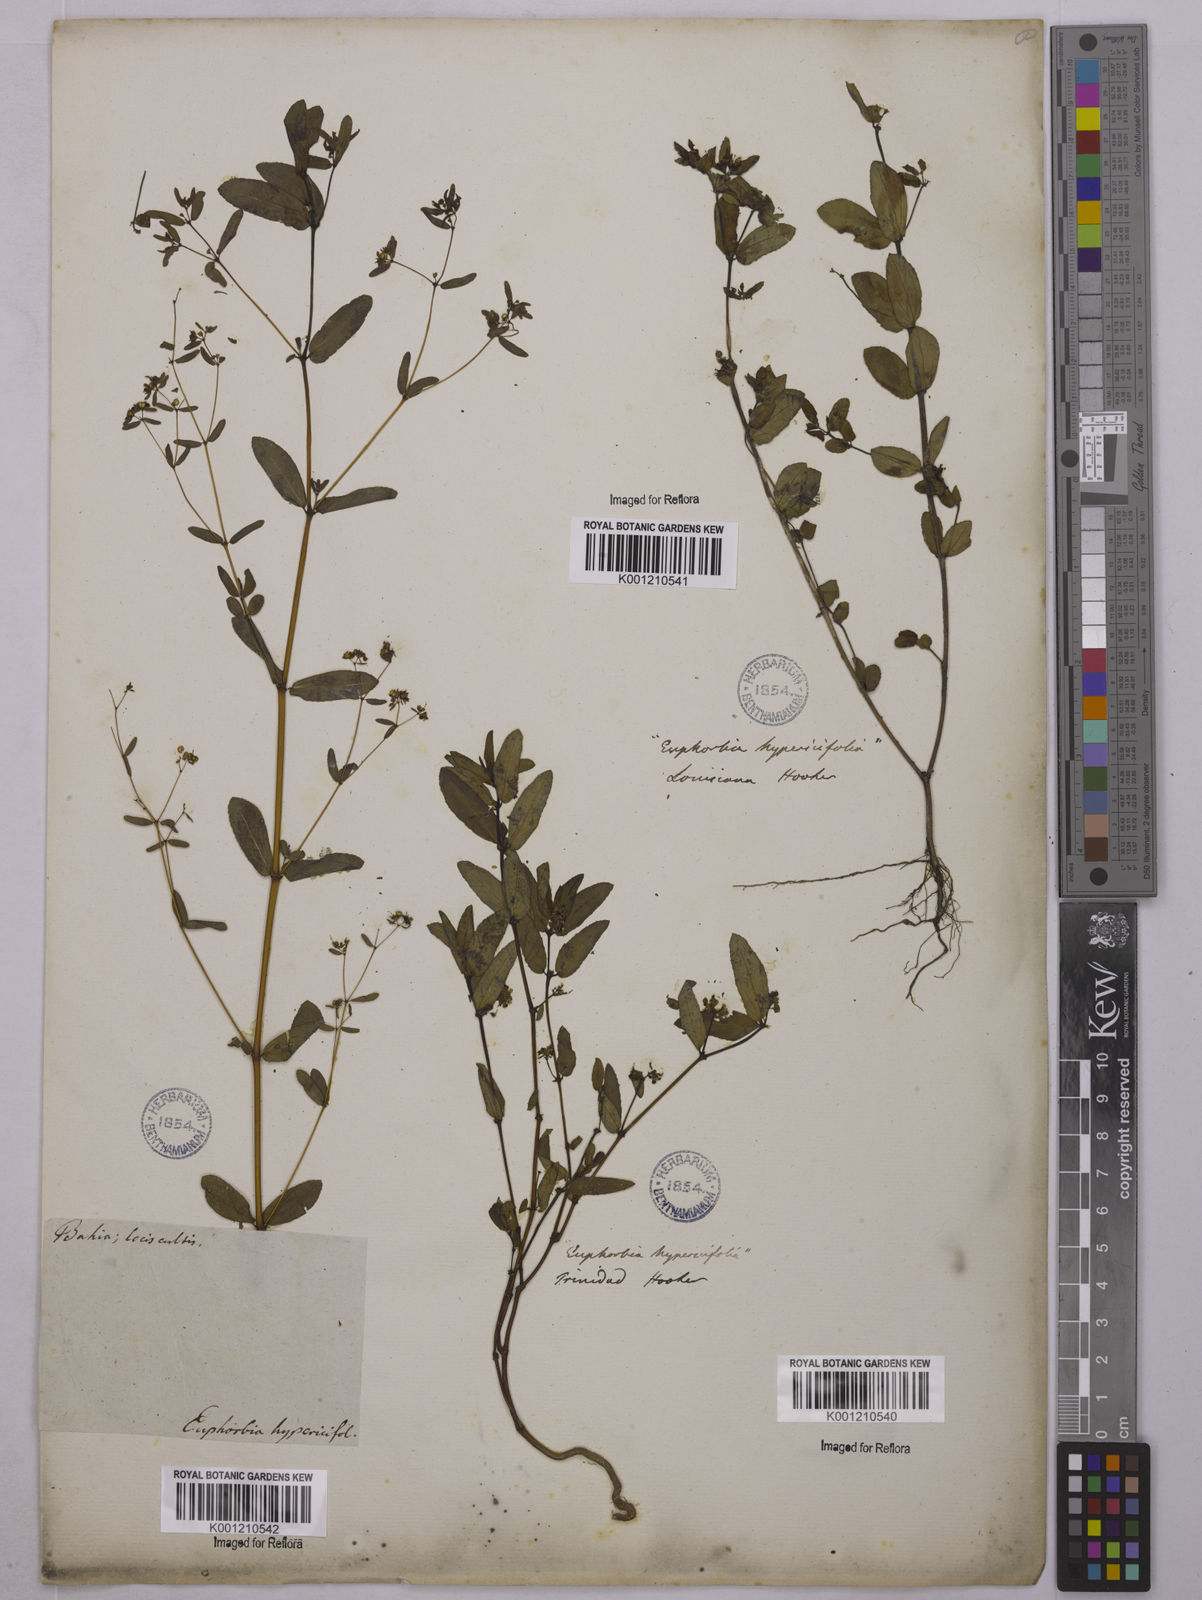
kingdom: Plantae
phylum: Tracheophyta
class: Magnoliopsida
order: Malpighiales
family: Euphorbiaceae
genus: Euphorbia
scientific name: Euphorbia hypericifolia
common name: Graceful sandmat
